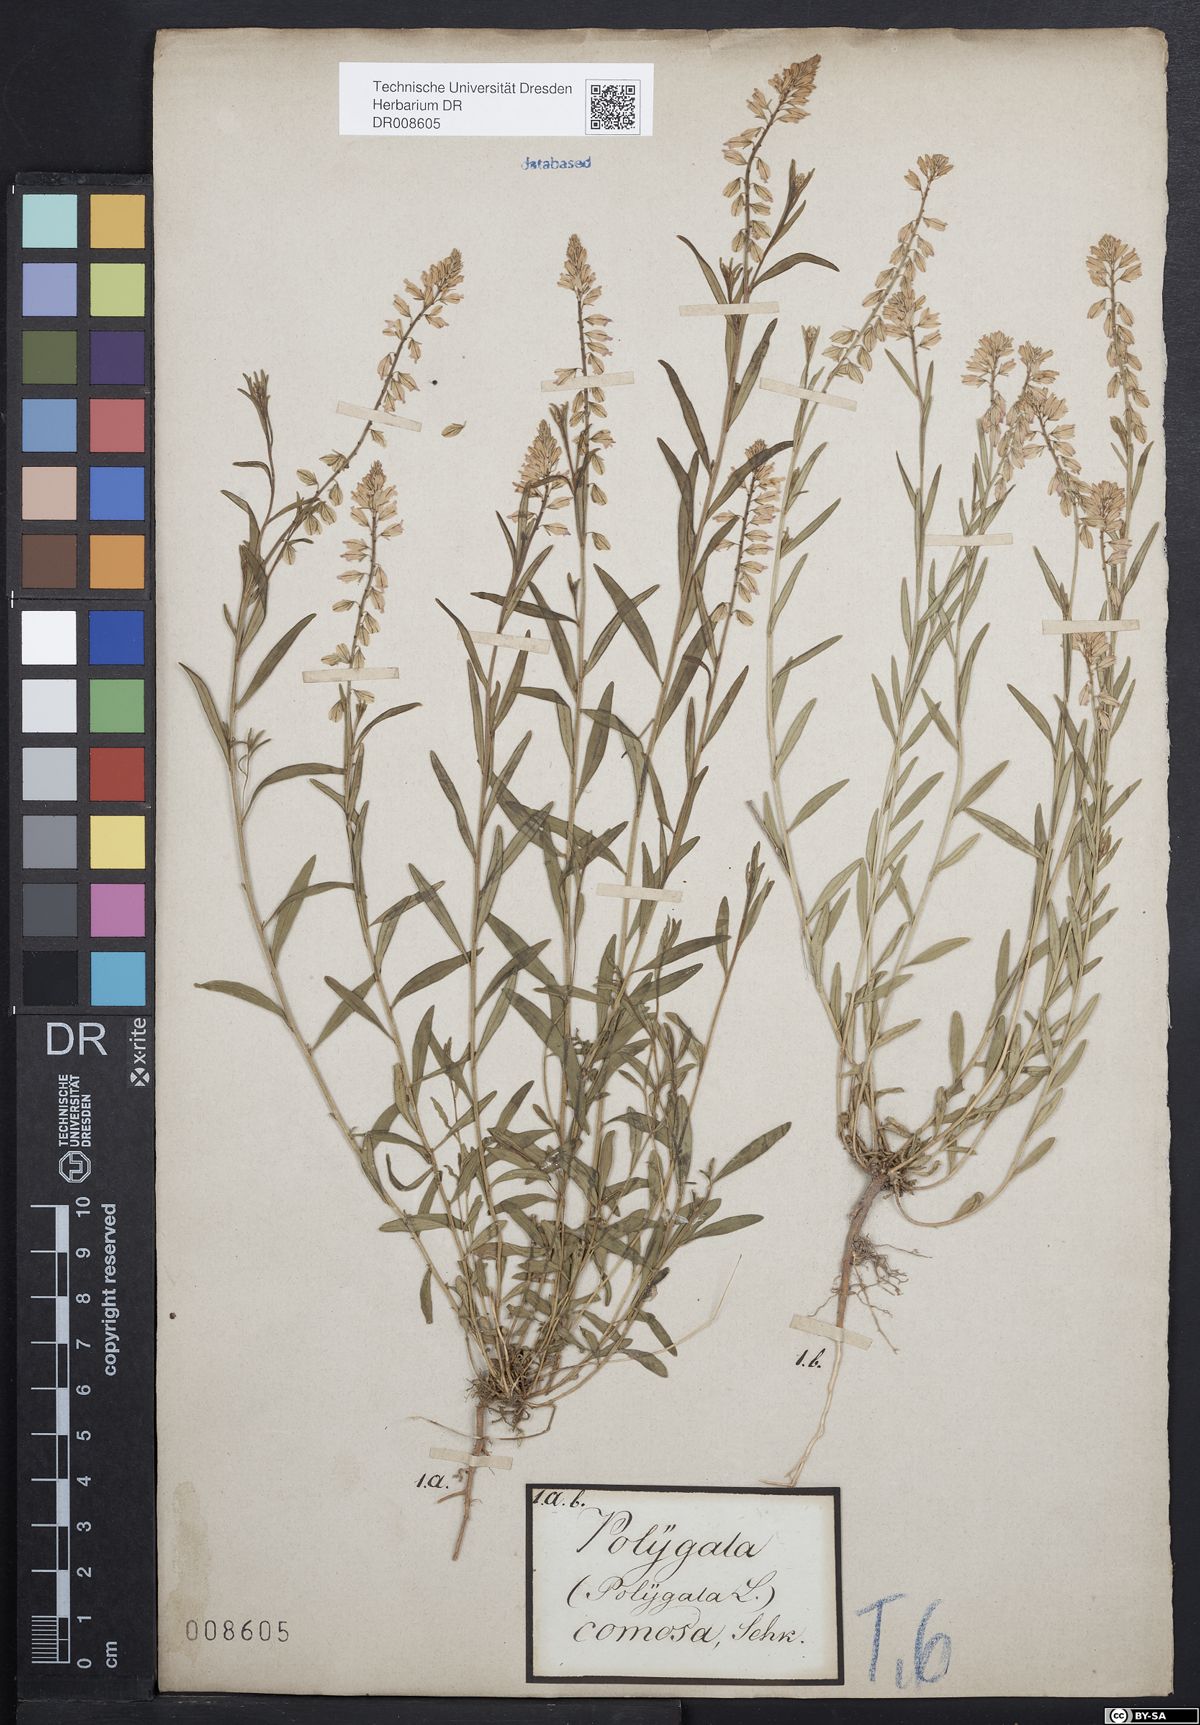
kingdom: Plantae
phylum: Tracheophyta
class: Magnoliopsida
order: Fabales
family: Polygalaceae
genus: Polygala
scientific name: Polygala comosa
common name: Tufted milkwort
